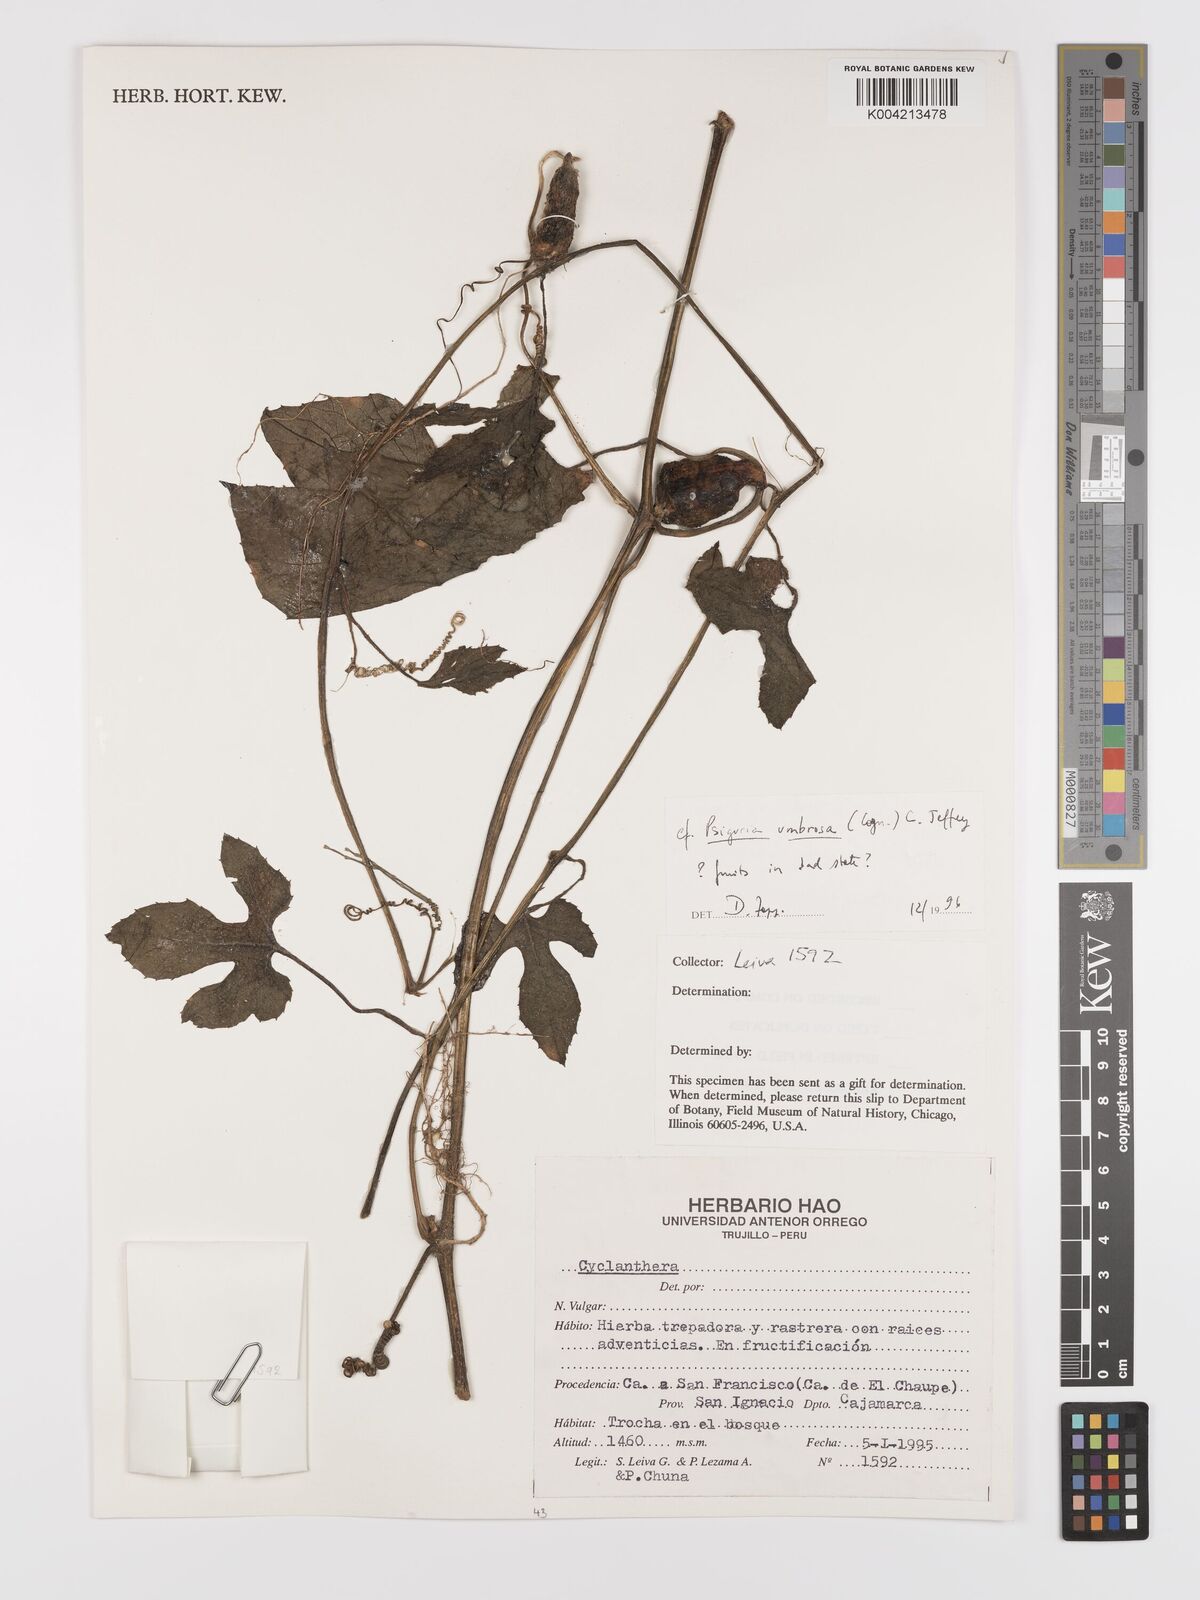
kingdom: Plantae
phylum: Tracheophyta
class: Magnoliopsida
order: Cucurbitales
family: Cucurbitaceae
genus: Psiguria
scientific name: Psiguria umbrosa
